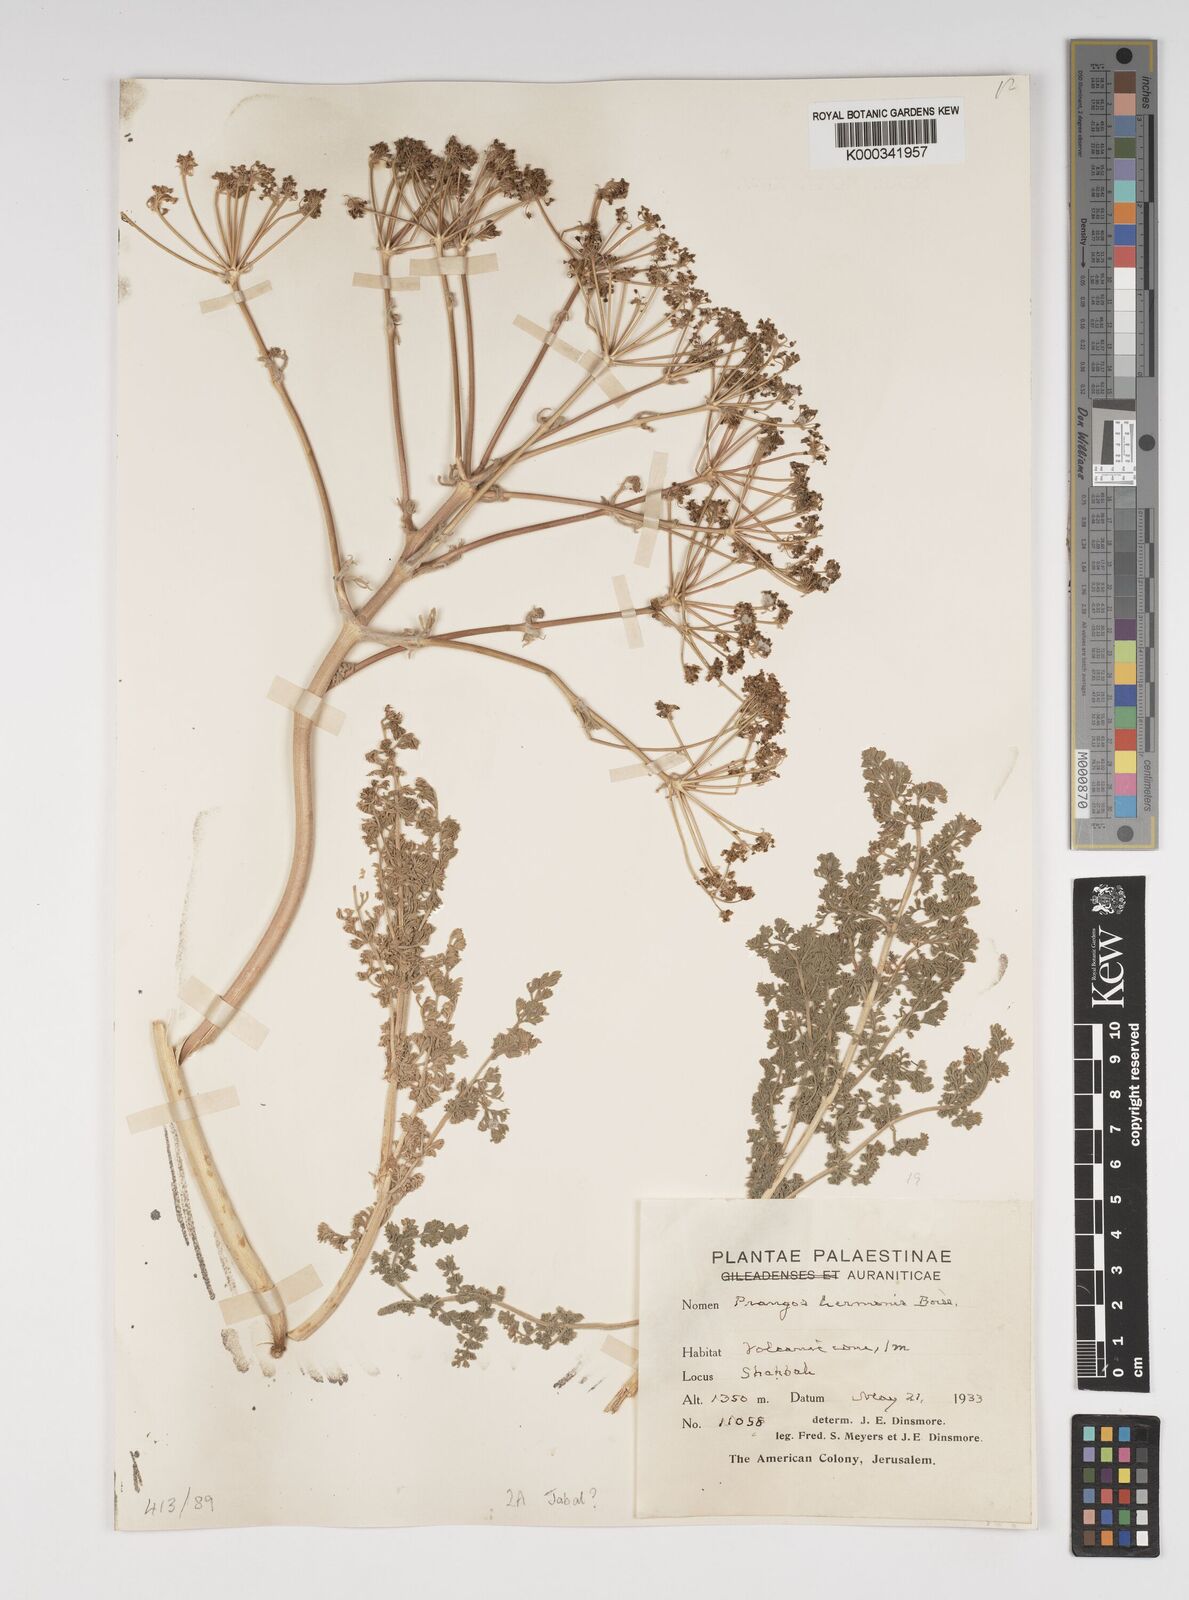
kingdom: Plantae
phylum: Tracheophyta
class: Magnoliopsida
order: Apiales
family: Apiaceae
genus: Prangos
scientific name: Prangos hermonis
